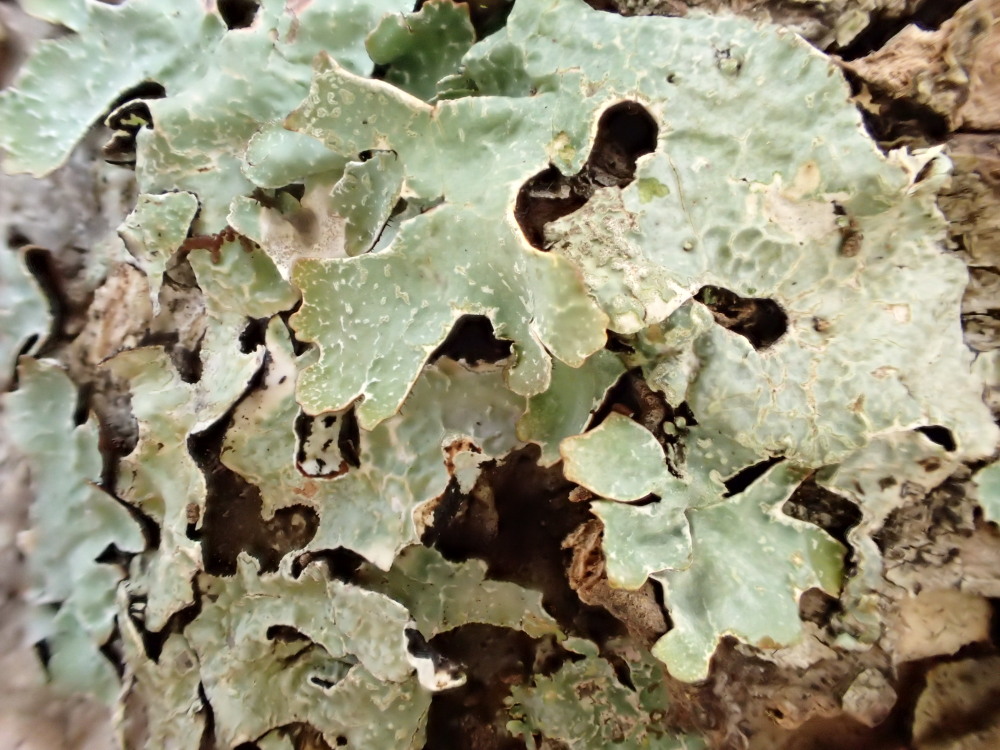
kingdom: Fungi
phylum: Ascomycota
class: Lecanoromycetes
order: Lecanorales
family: Parmeliaceae
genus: Parmelia
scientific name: Parmelia sulcata
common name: rynket skållav
